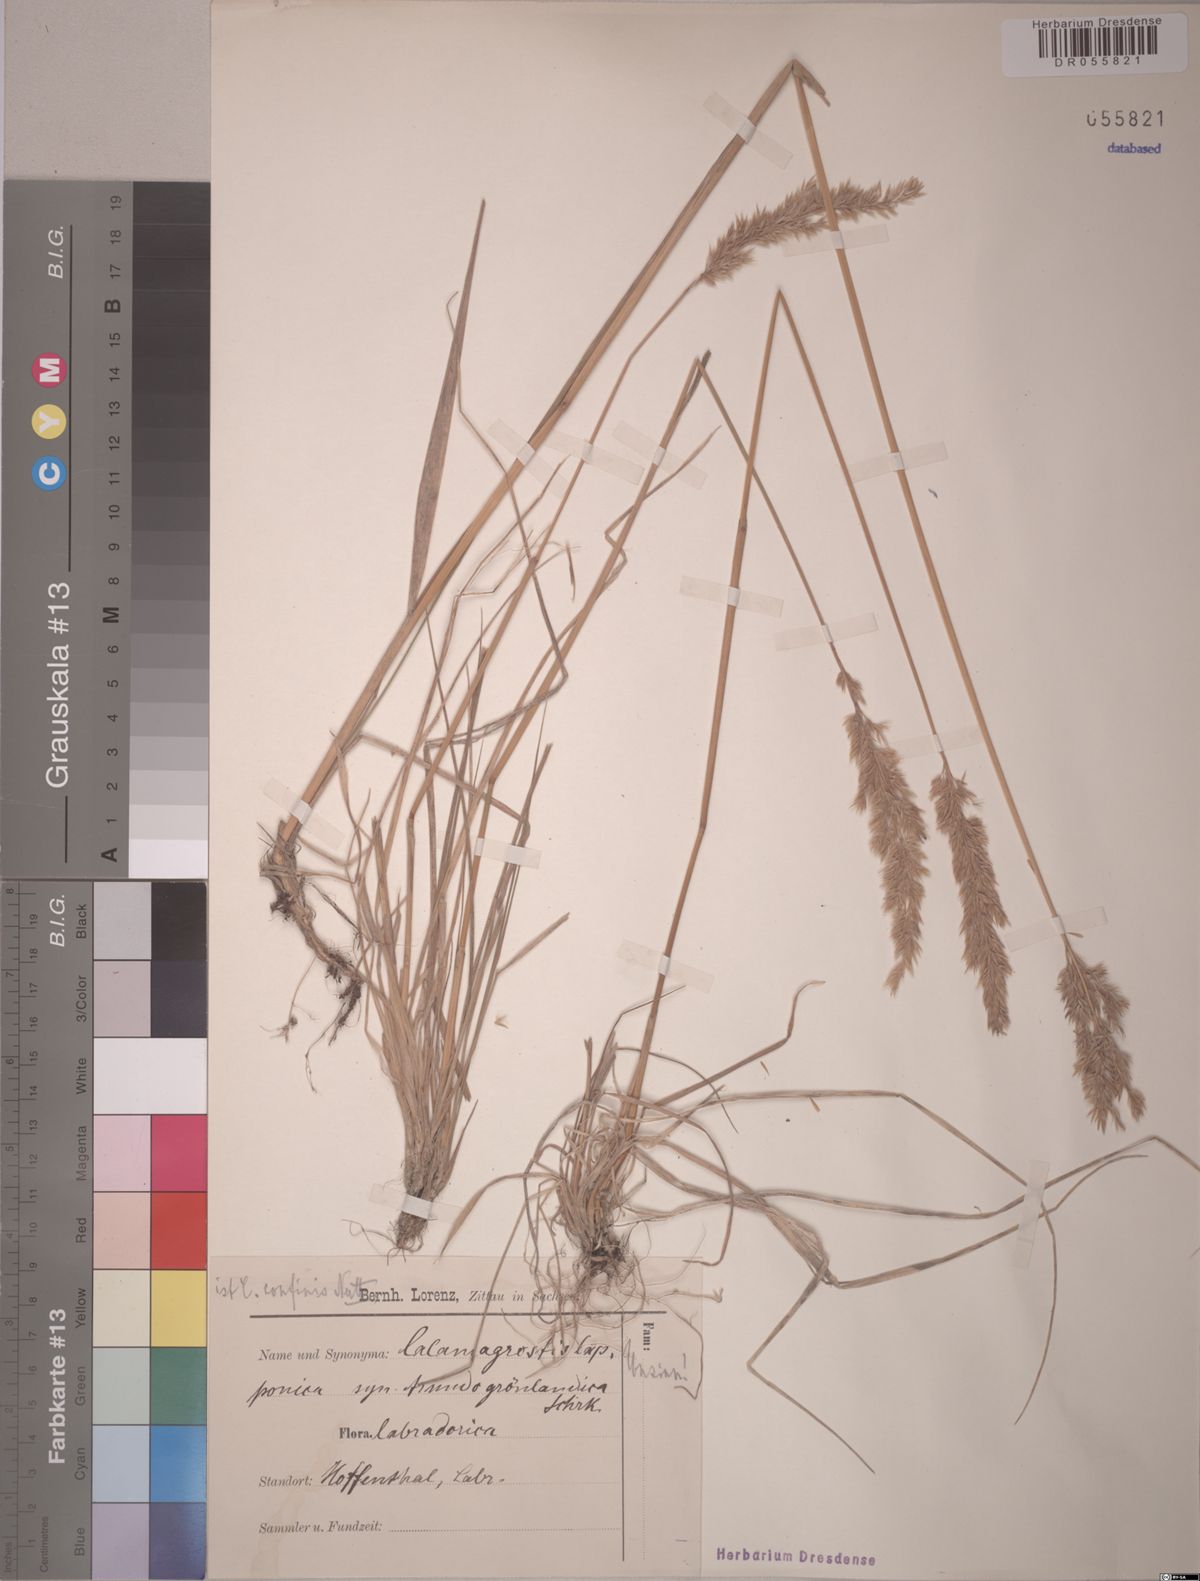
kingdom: Plantae
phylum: Tracheophyta
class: Liliopsida
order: Poales
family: Poaceae
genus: Calamagrostis
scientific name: Calamagrostis lapponica
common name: Lapland reedgrass
